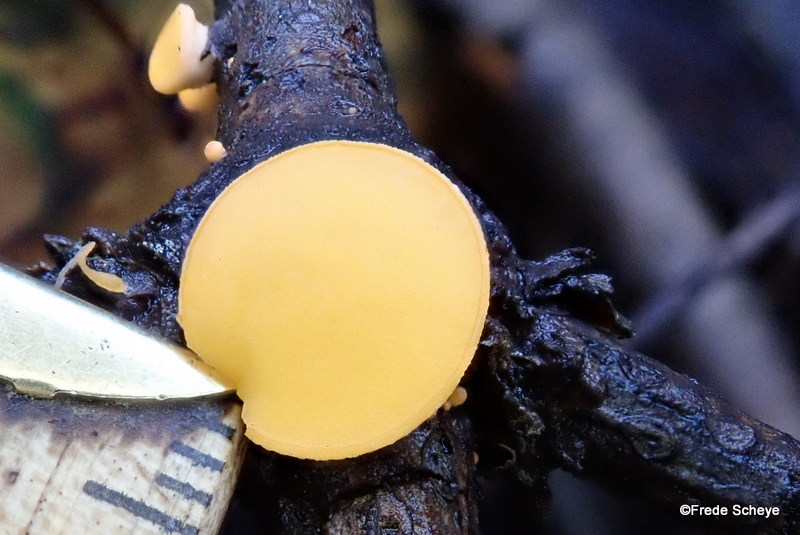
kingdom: Fungi
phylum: Ascomycota
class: Pezizomycetes
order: Pezizales
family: Sarcoscyphaceae
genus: Pithya
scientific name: Pithya vulgaris
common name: stor dukatbæger
